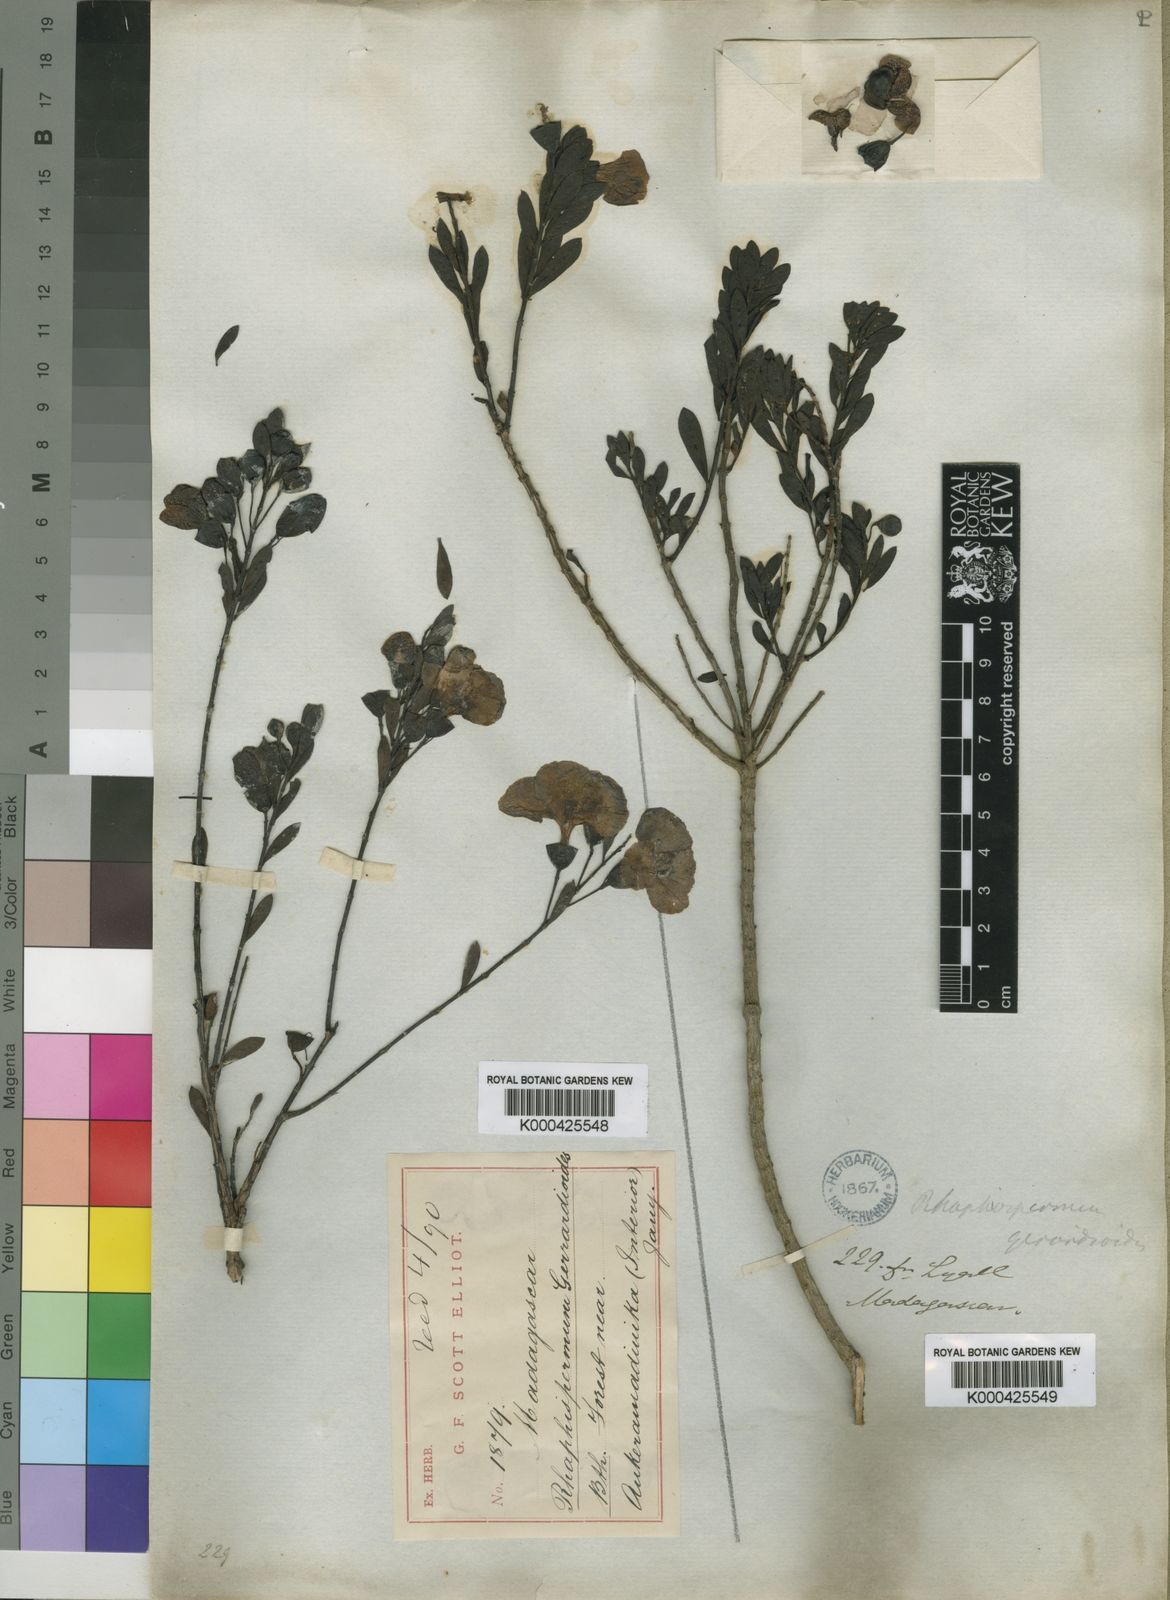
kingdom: Plantae
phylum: Tracheophyta
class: Magnoliopsida
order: Lamiales
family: Orobanchaceae
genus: Rhaphispermum
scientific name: Rhaphispermum gerardioides
